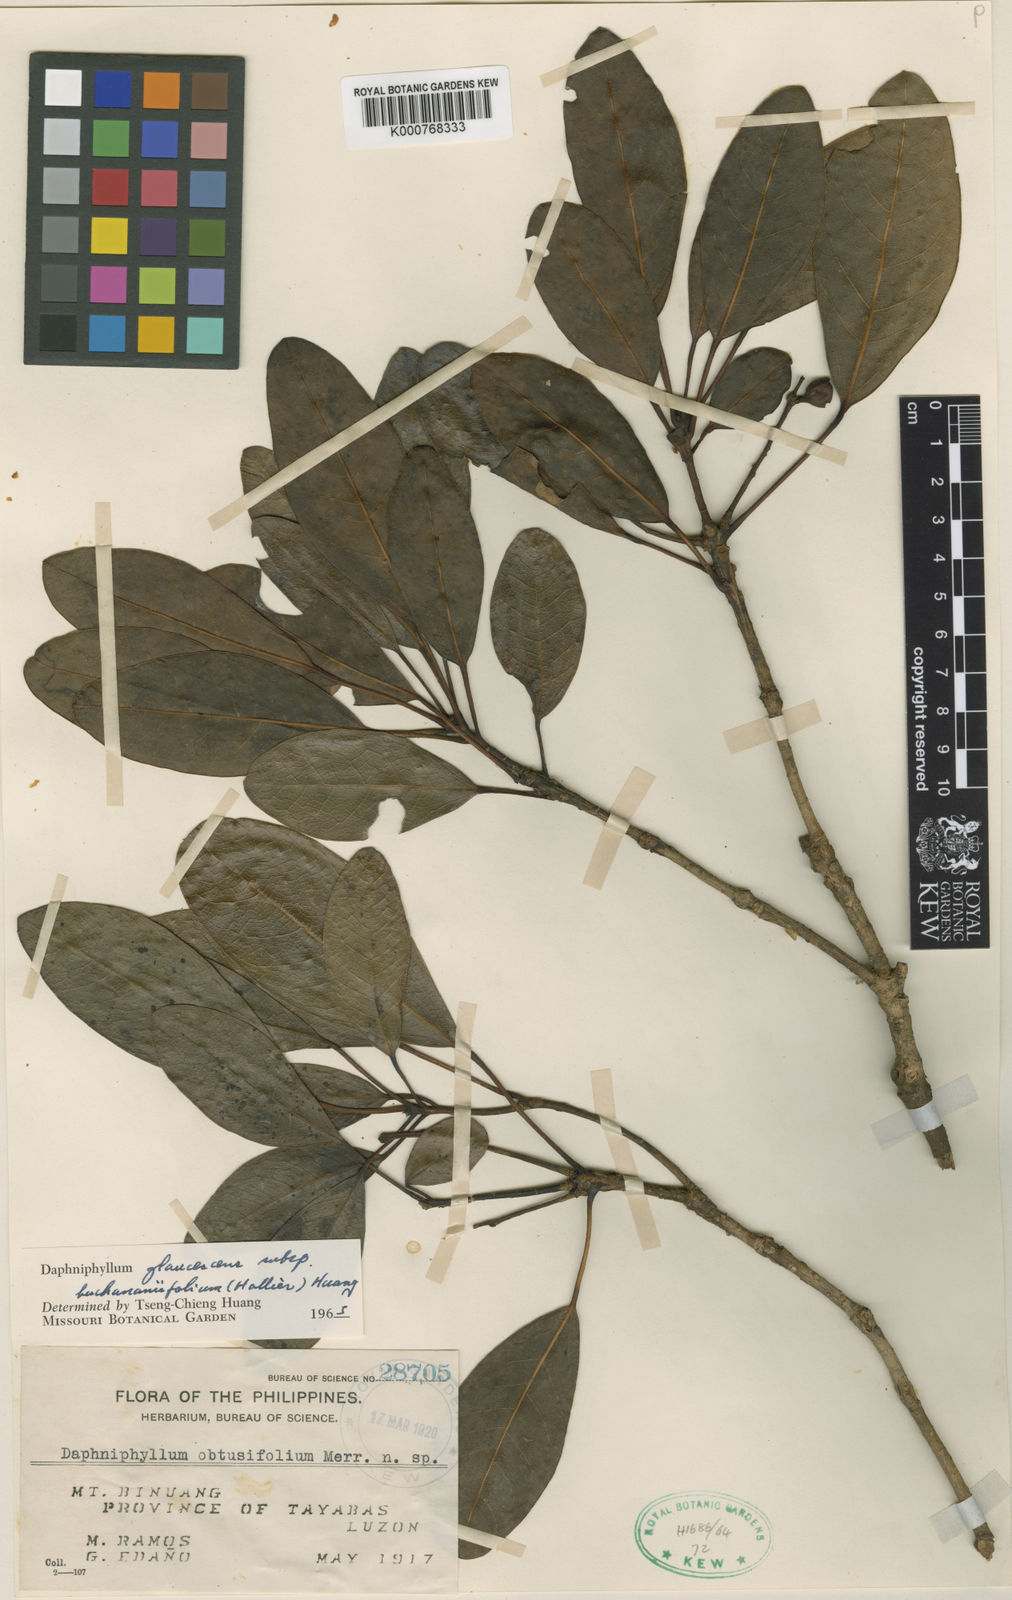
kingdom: Plantae
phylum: Tracheophyta
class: Magnoliopsida
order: Saxifragales
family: Daphniphyllaceae
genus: Daphniphyllum
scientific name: Daphniphyllum glaucescens
